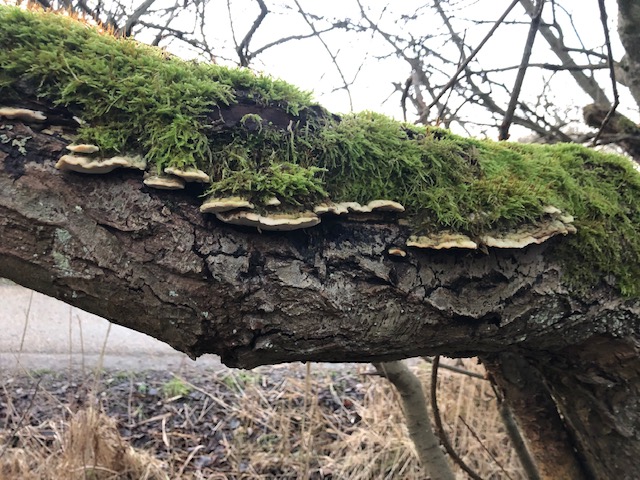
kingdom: Fungi
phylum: Basidiomycota
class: Agaricomycetes
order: Hymenochaetales
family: Oxyporaceae
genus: Oxyporus
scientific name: Oxyporus populinus
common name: sammenvokset trylleporesvamp
